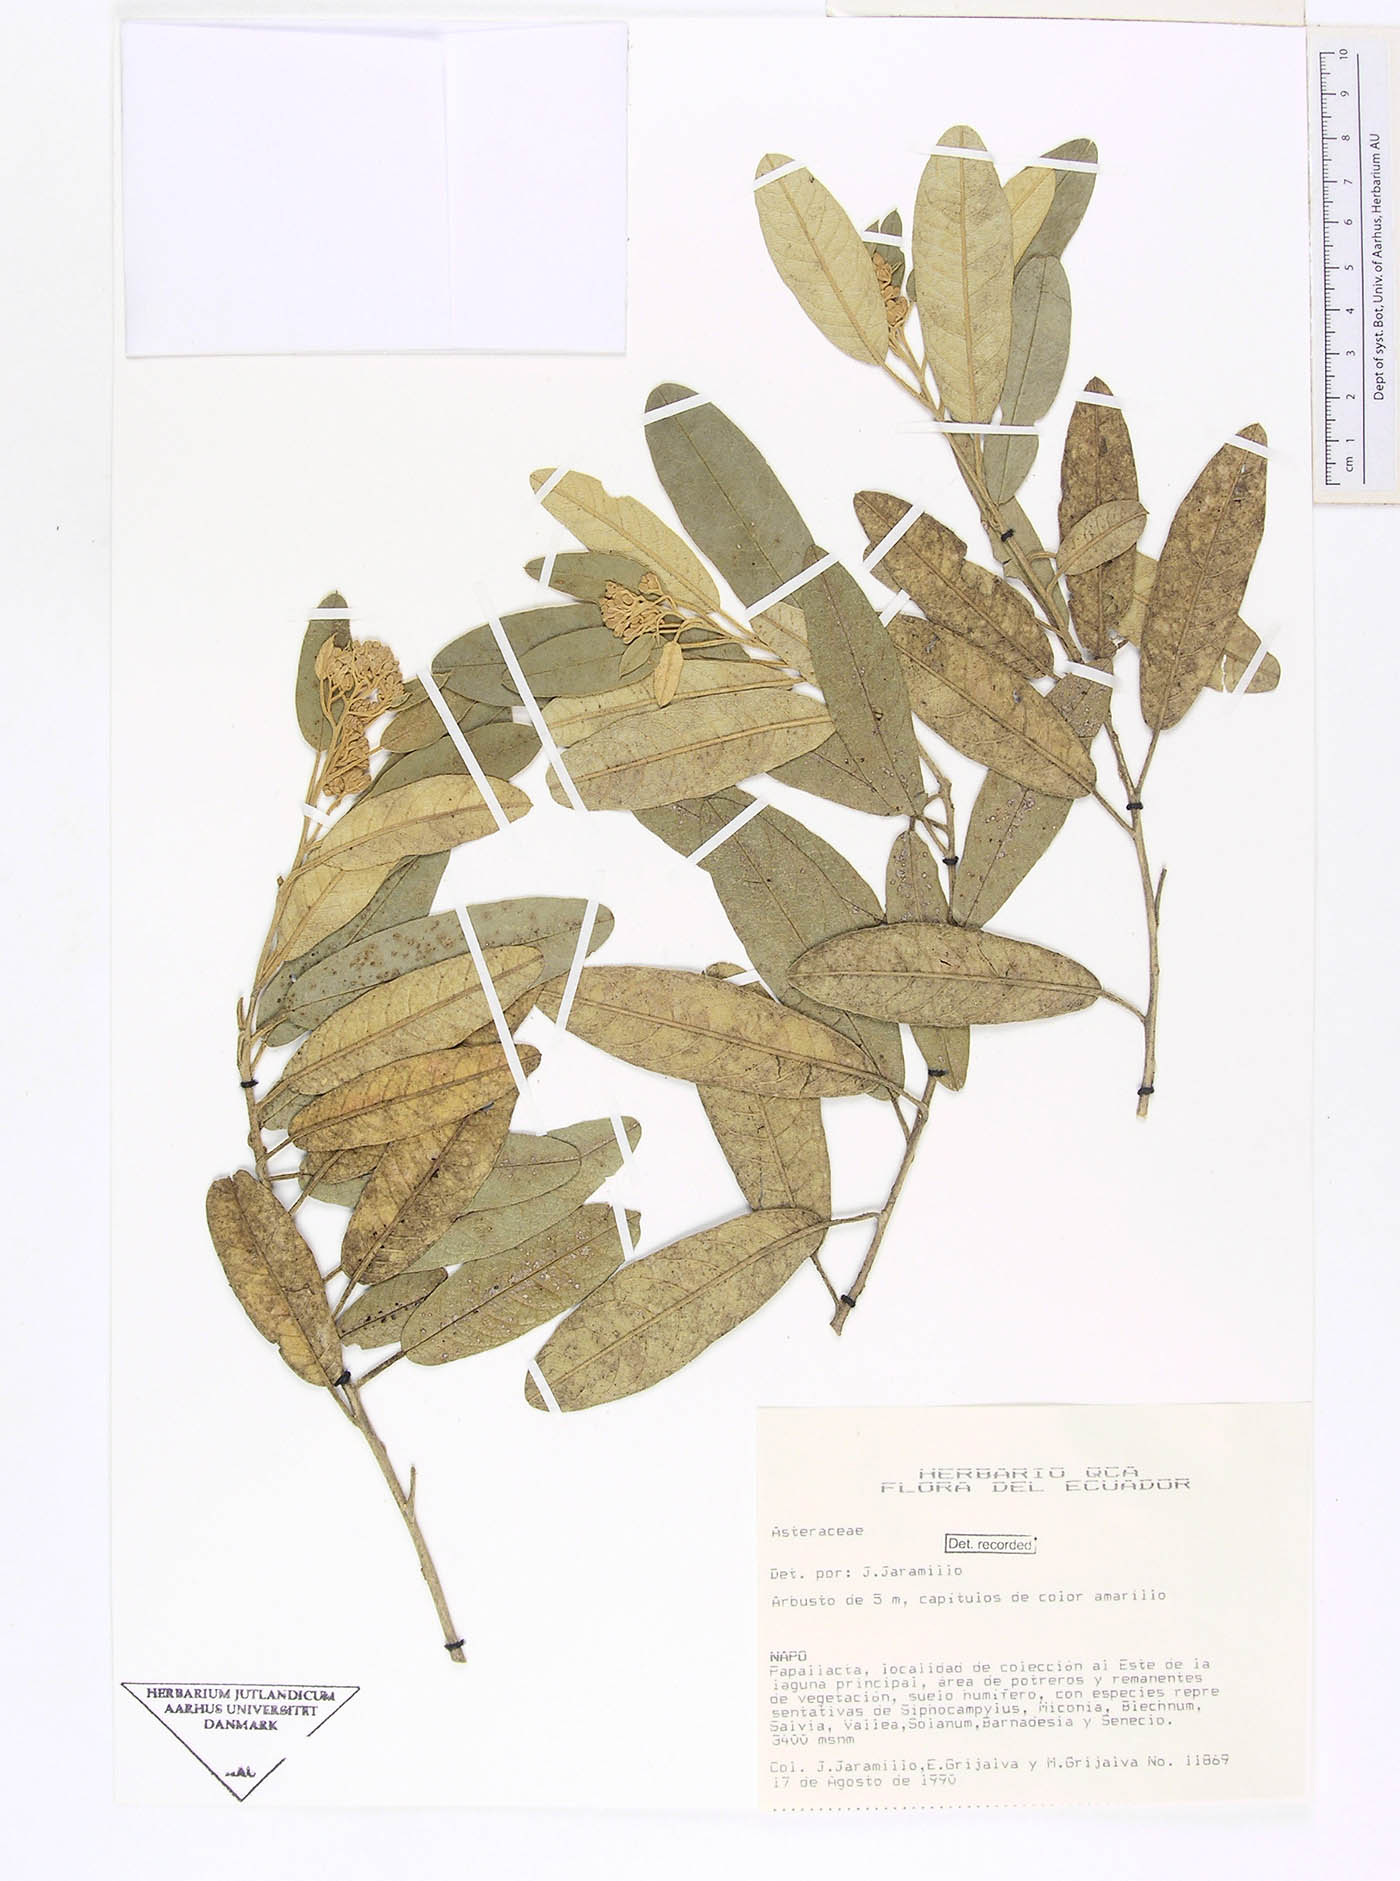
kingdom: Plantae
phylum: Tracheophyta
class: Magnoliopsida
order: Solanales
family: Solanaceae
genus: Sessea
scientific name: Sessea crassivenosa
